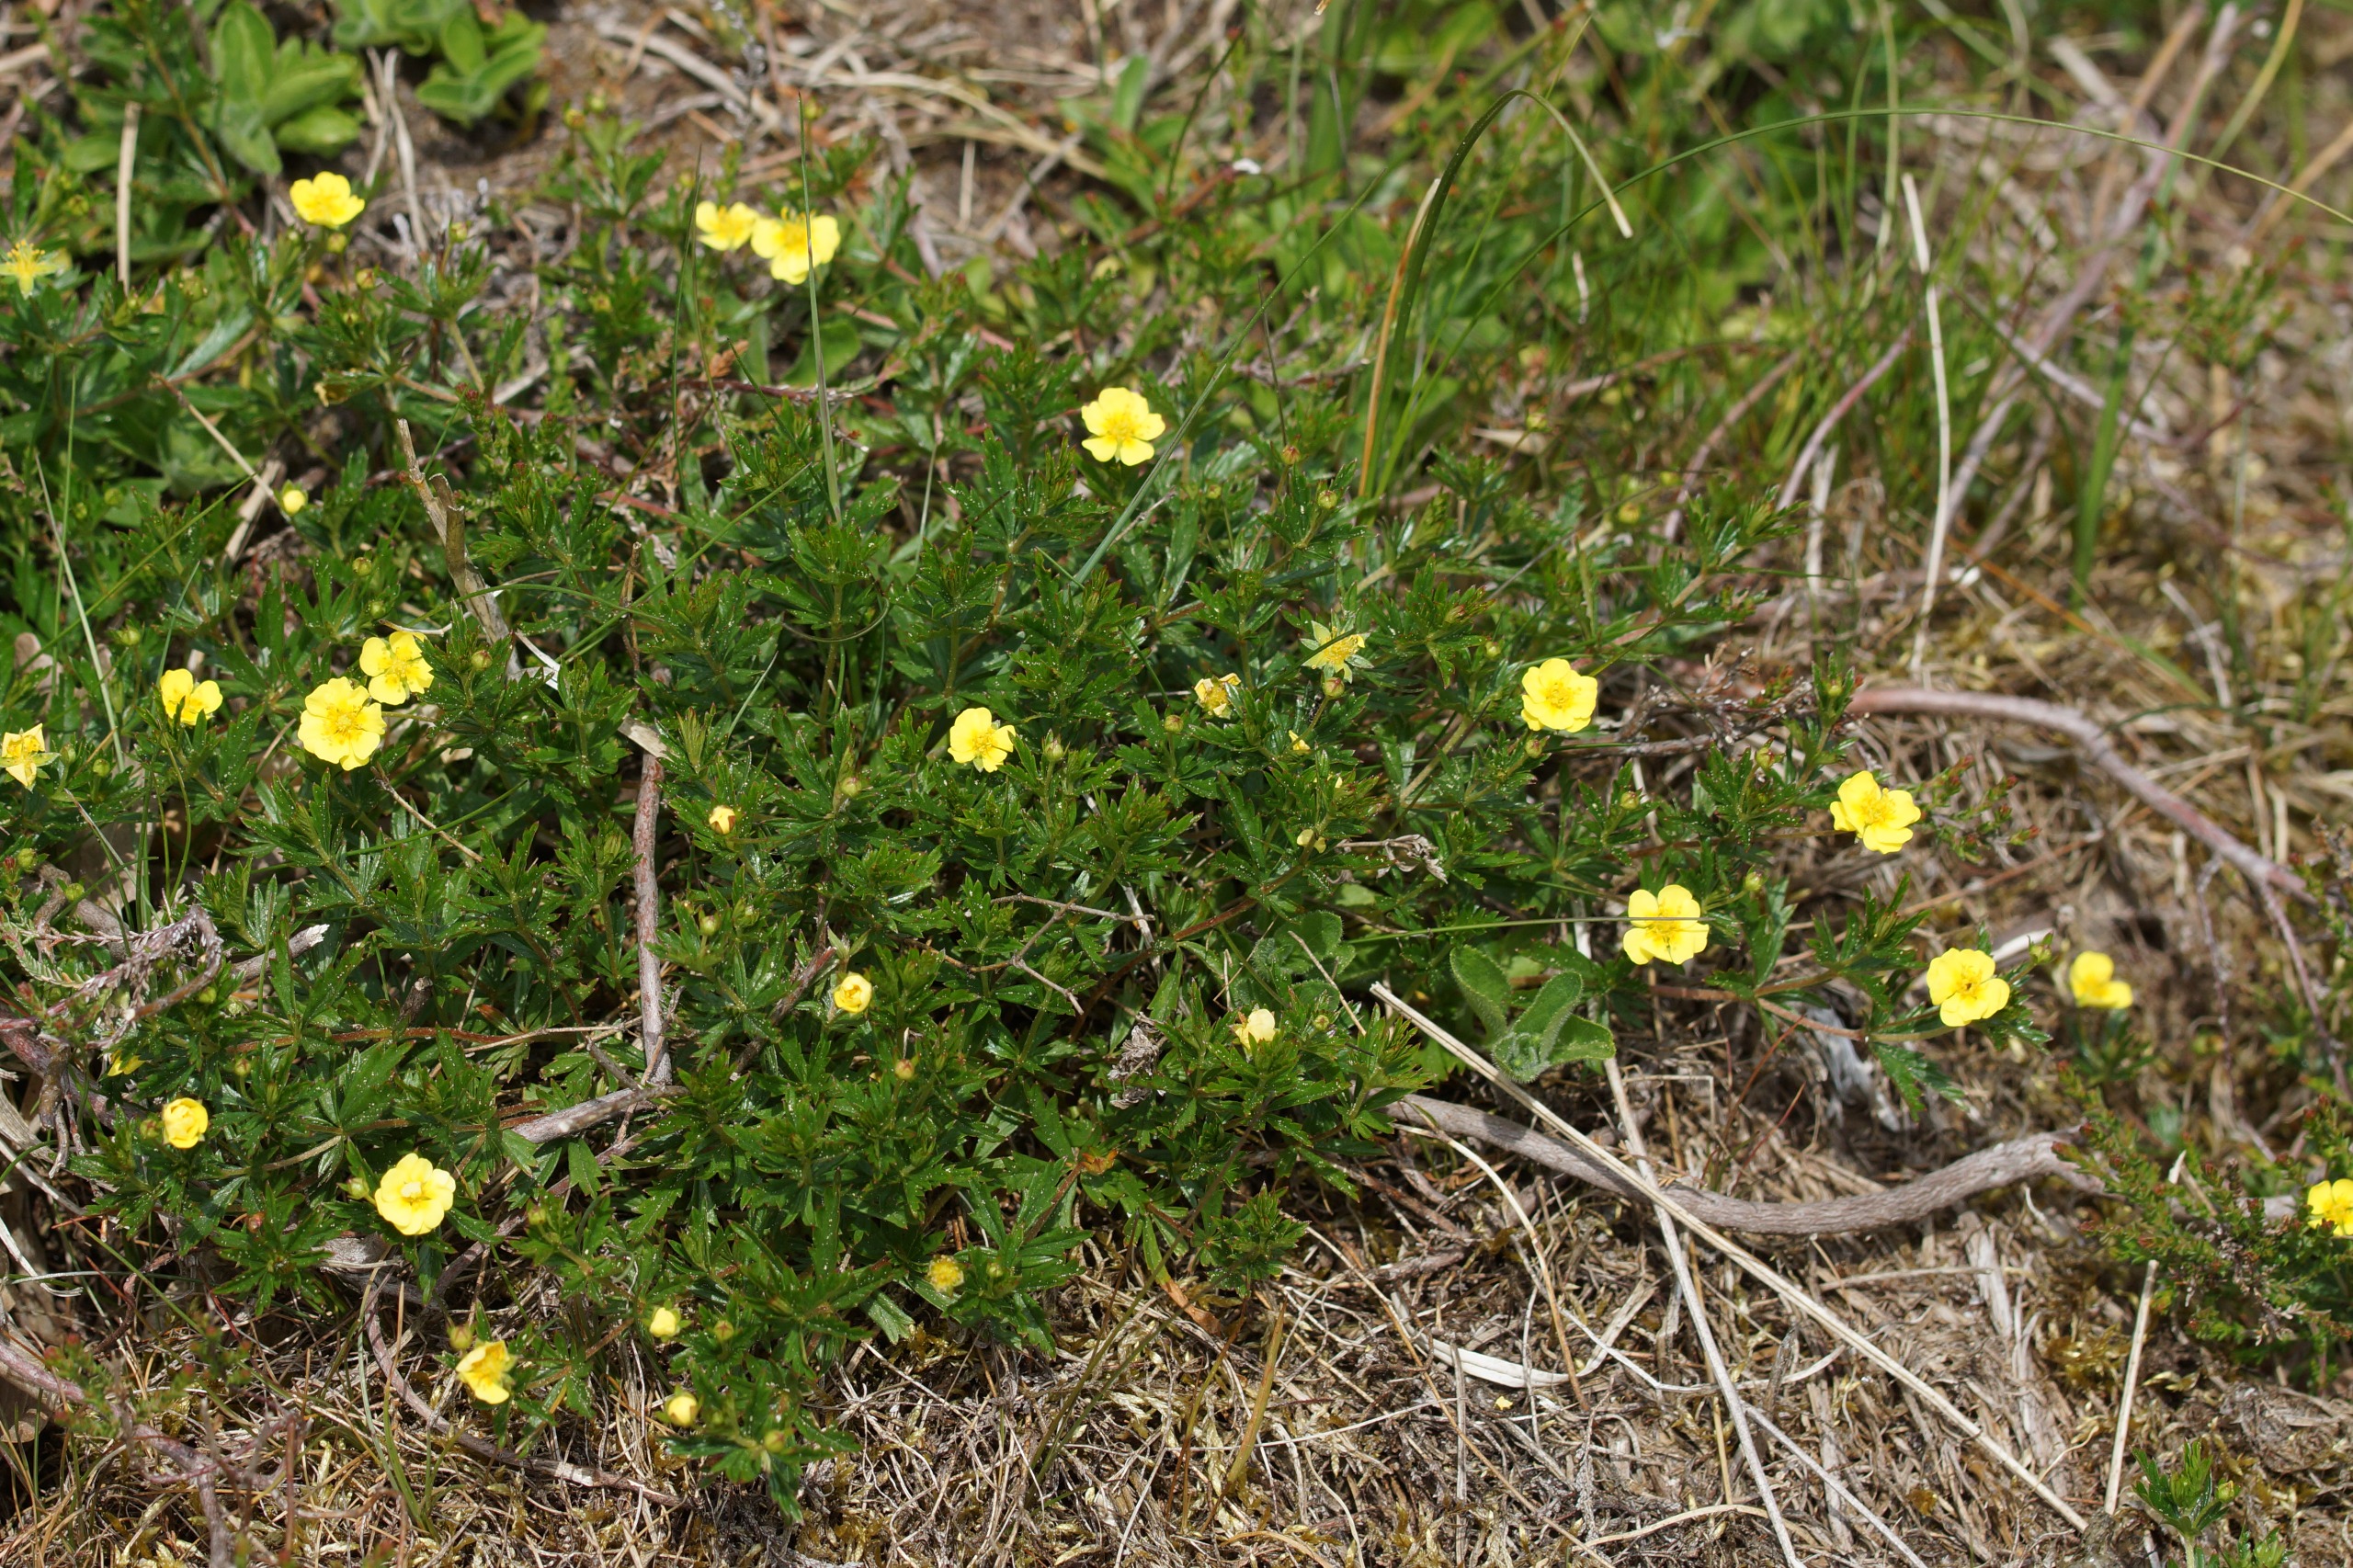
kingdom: Plantae
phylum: Tracheophyta
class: Magnoliopsida
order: Rosales
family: Rosaceae
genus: Potentilla
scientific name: Potentilla erecta
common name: Tormentil
